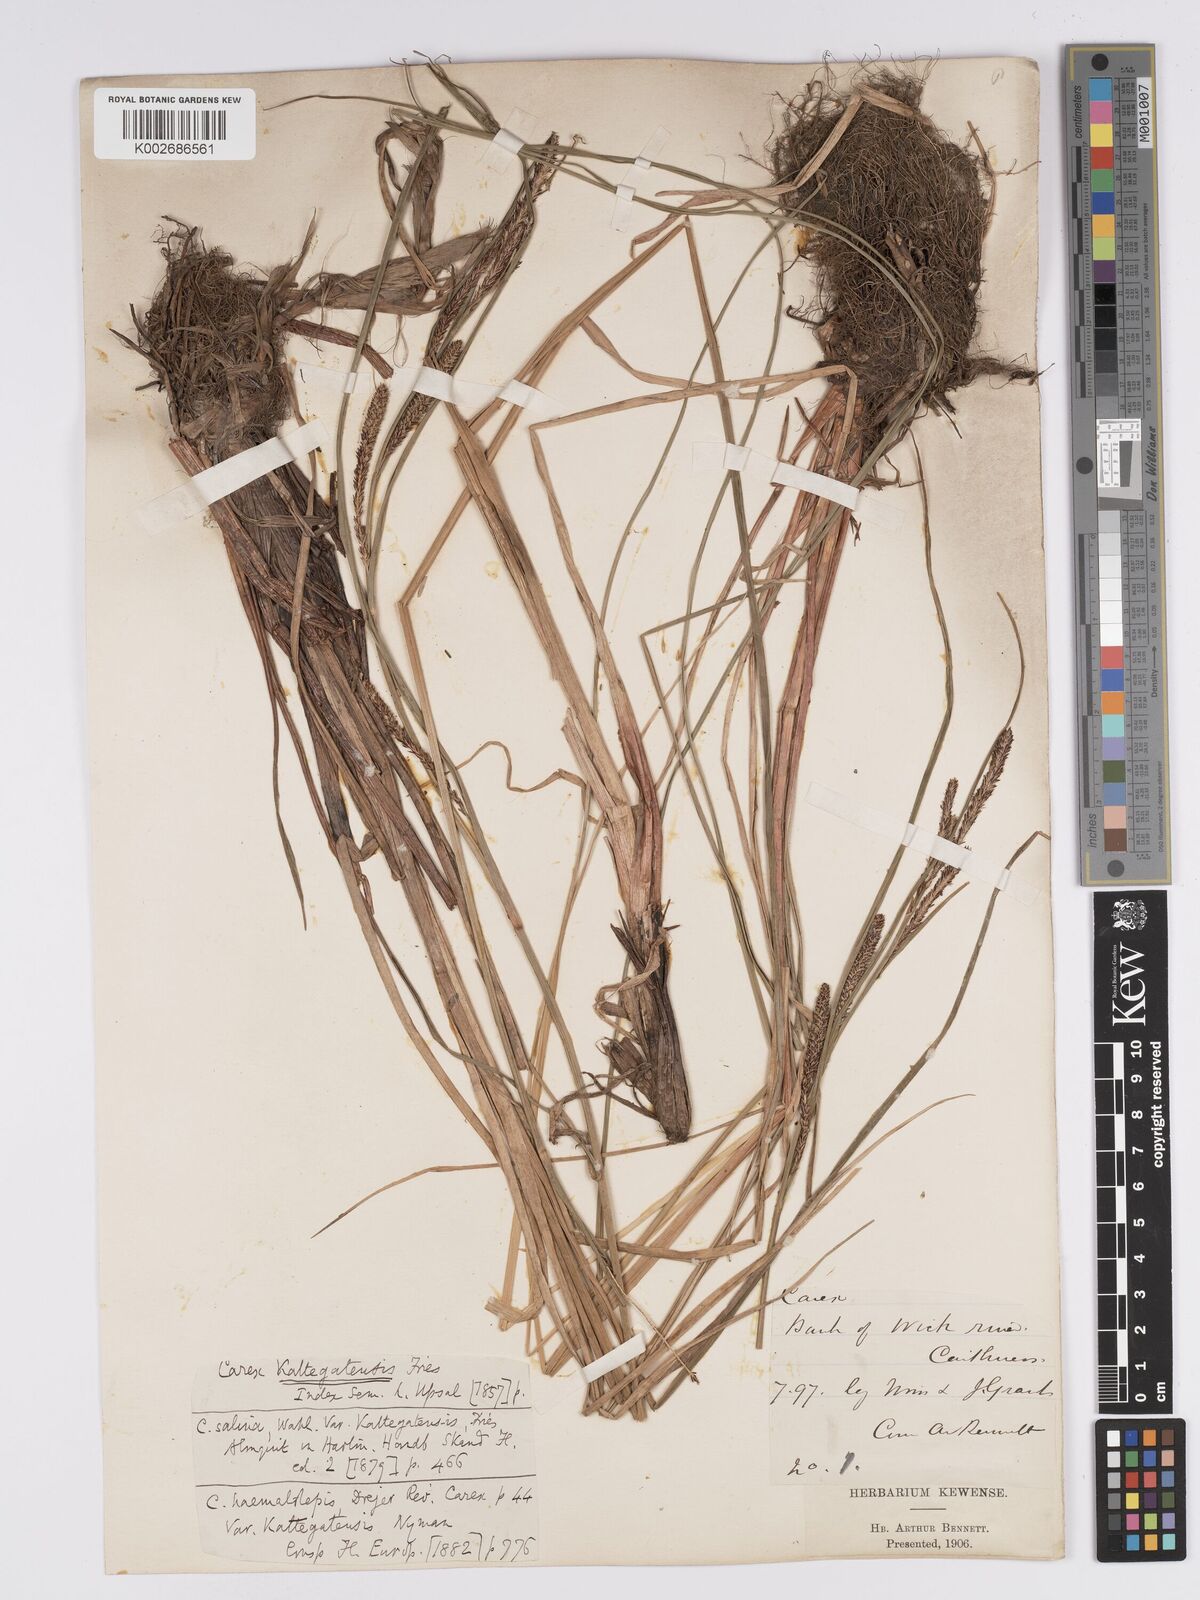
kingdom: Plantae
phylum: Tracheophyta
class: Liliopsida
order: Poales
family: Cyperaceae
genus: Carex
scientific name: Carex aquatilis
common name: Water sedge
